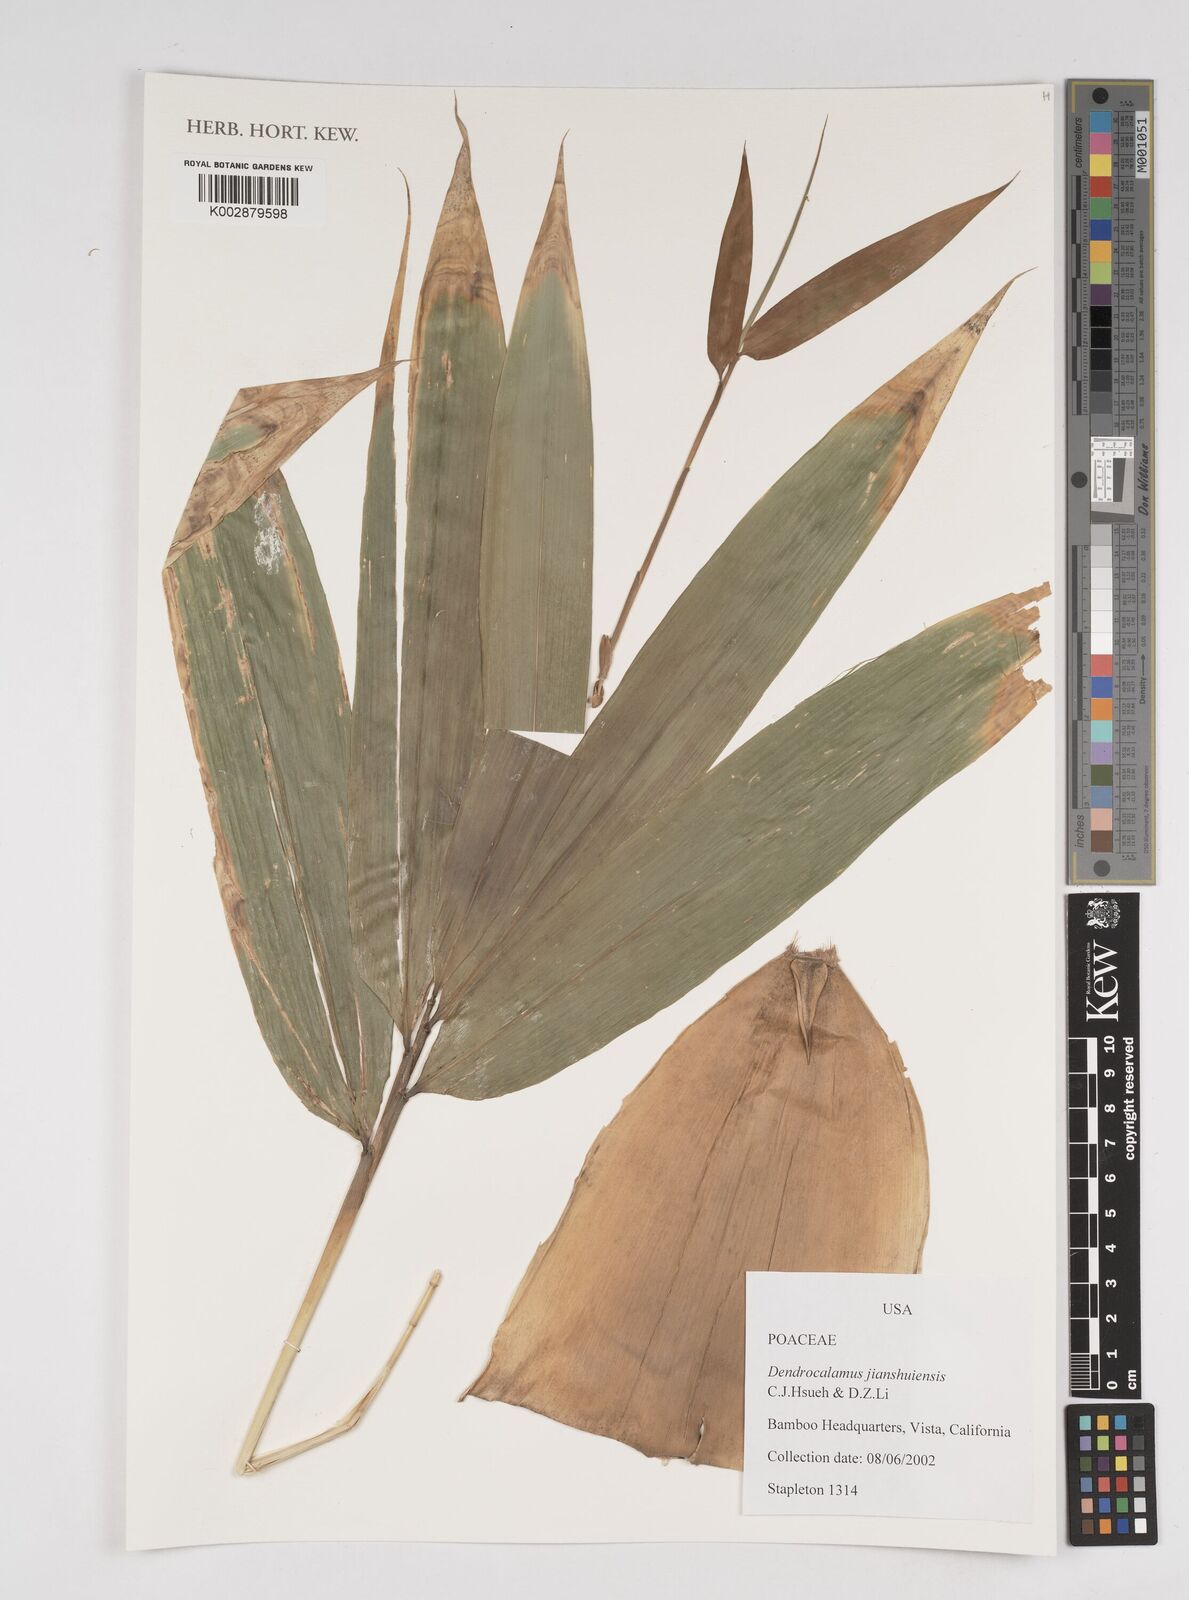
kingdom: Plantae
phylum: Tracheophyta
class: Liliopsida
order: Poales
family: Poaceae
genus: Dendrocalamus
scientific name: Dendrocalamus jianshuiensis
